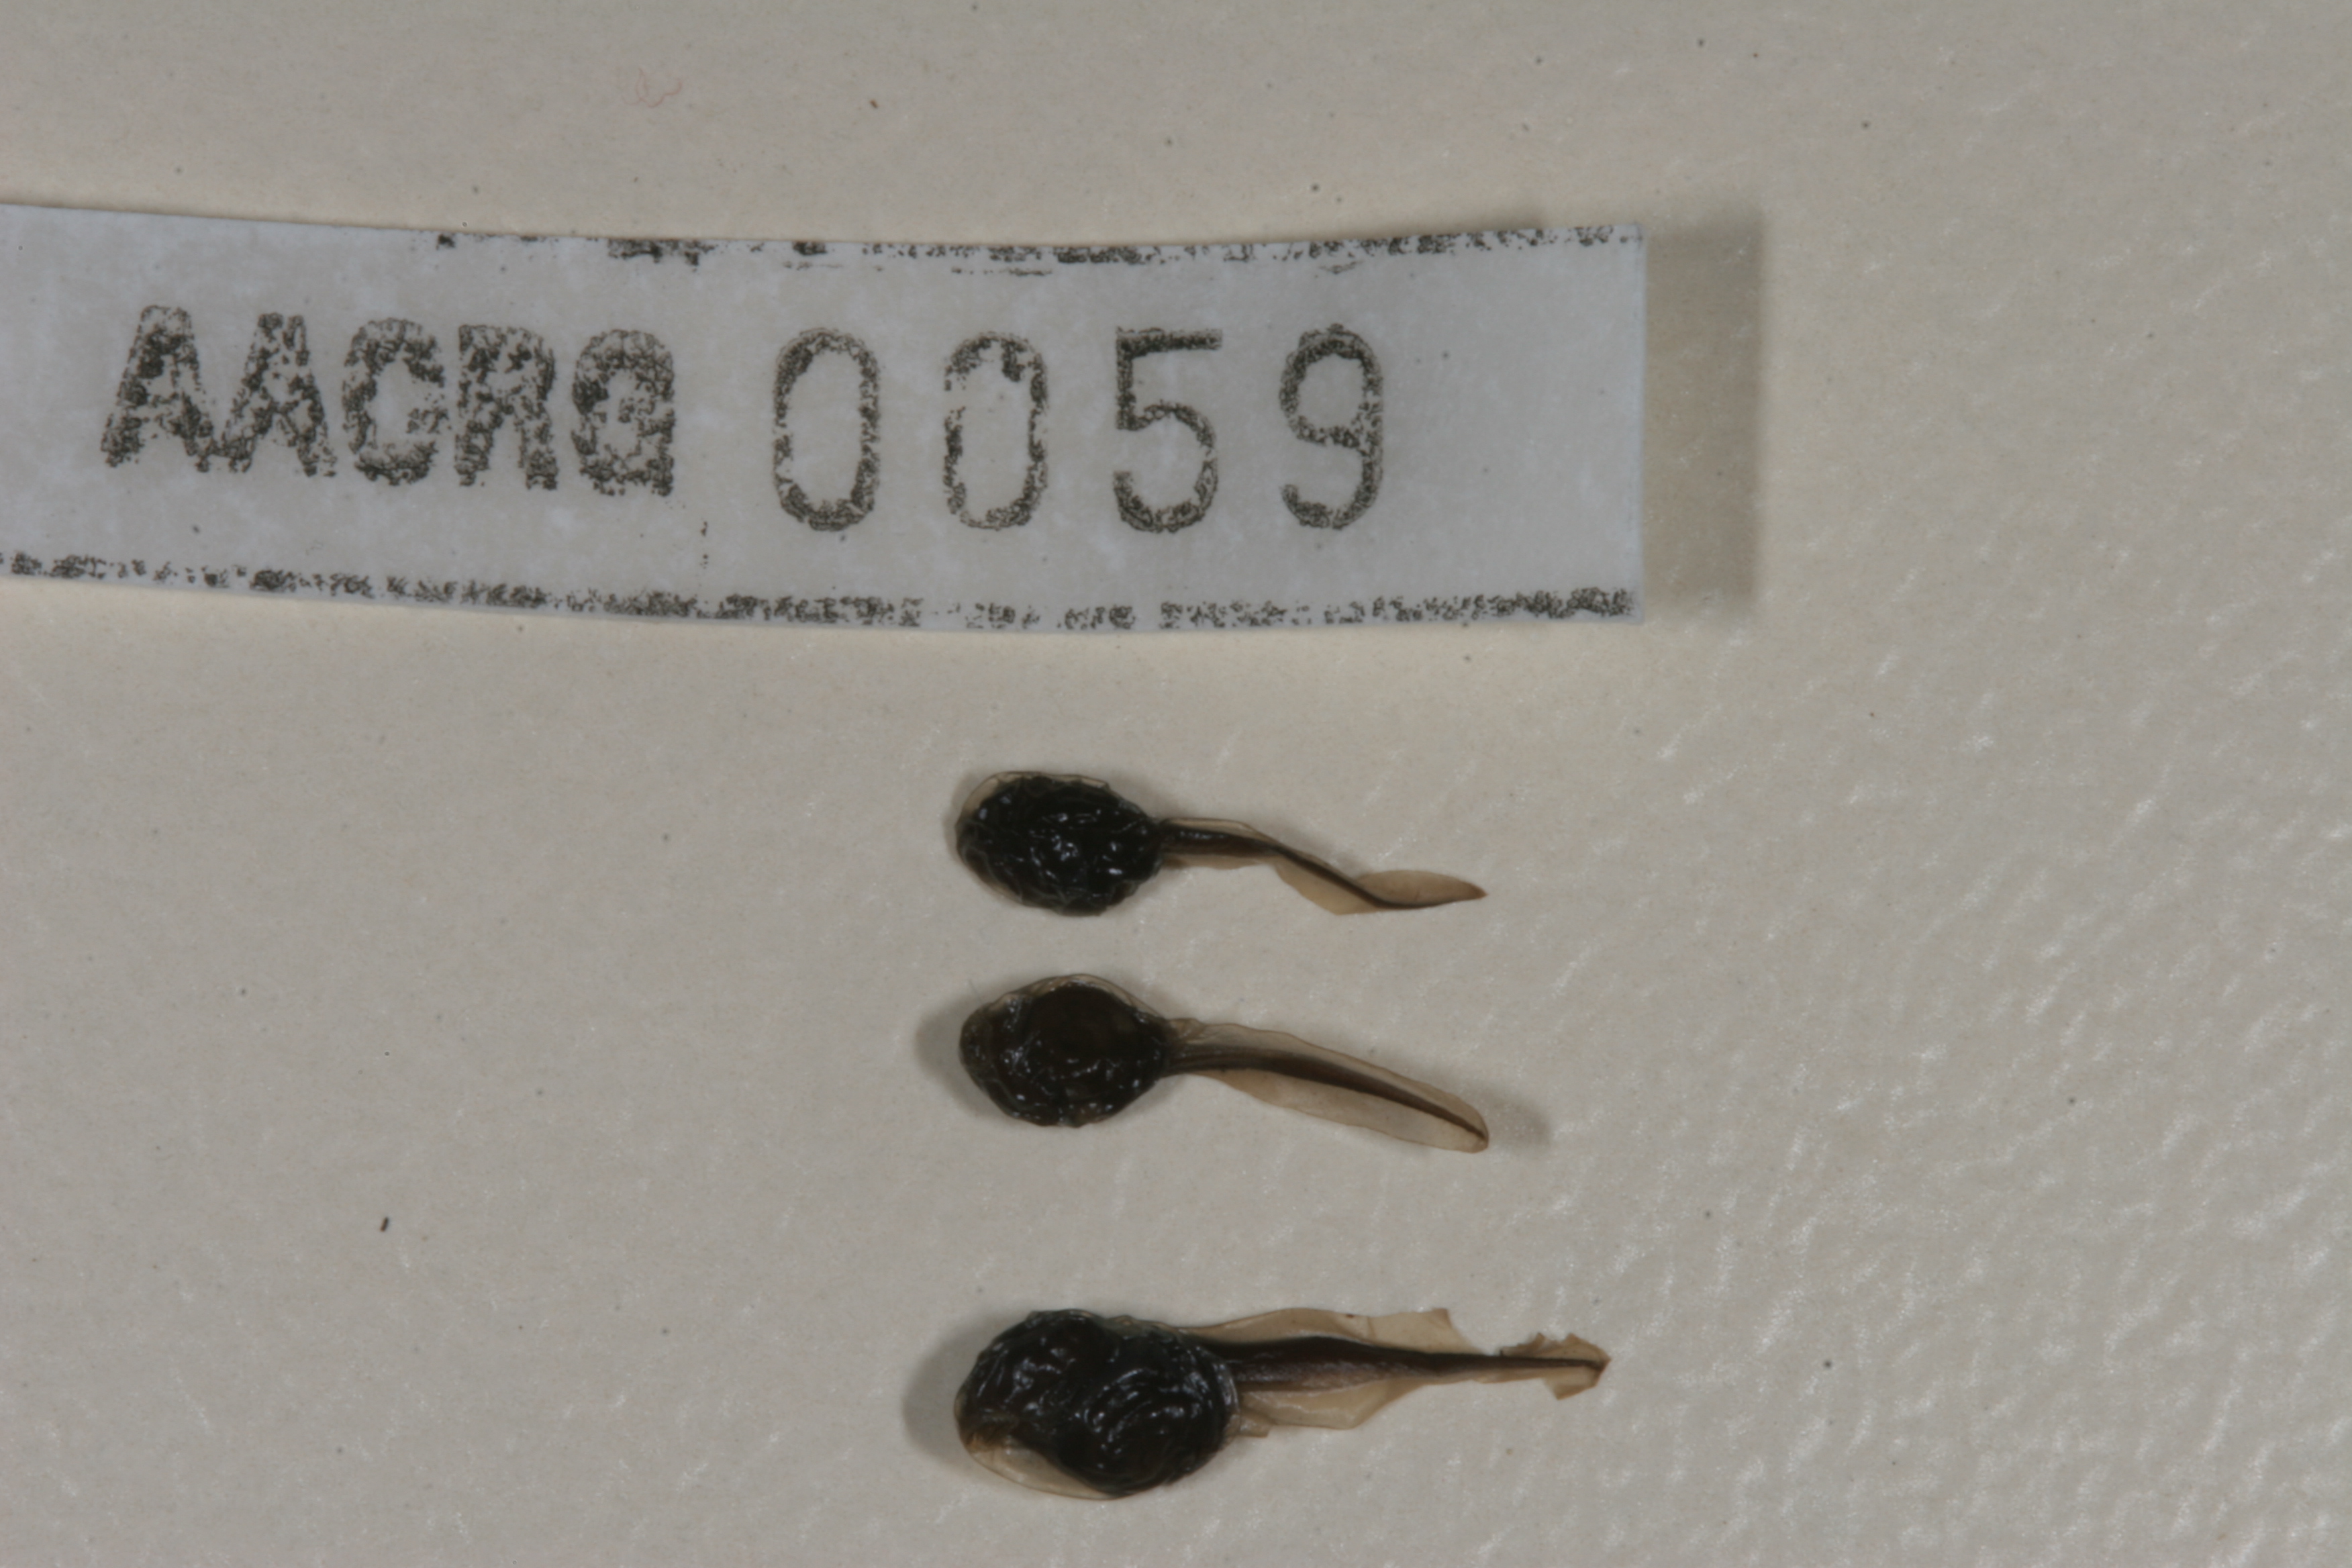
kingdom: Animalia
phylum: Chordata
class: Amphibia
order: Anura
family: Bufonidae
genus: Sclerophrys
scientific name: Sclerophrys poweri
